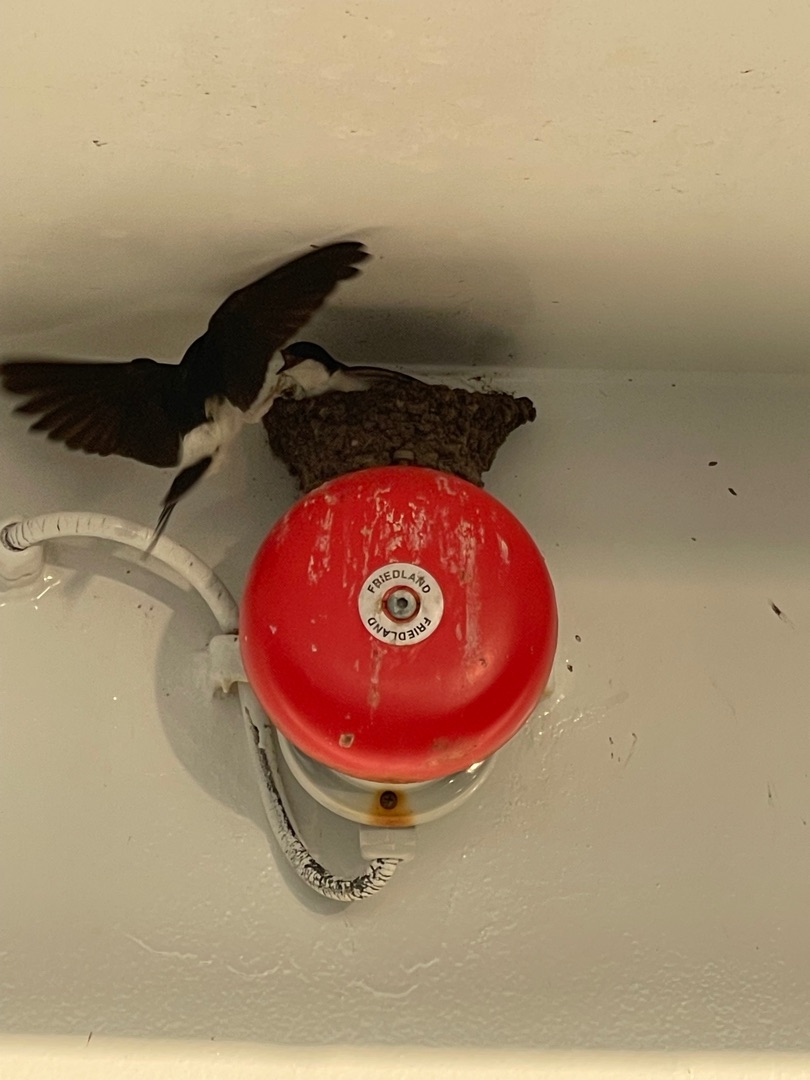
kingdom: Animalia
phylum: Chordata
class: Aves
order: Passeriformes
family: Hirundinidae
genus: Delichon
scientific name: Delichon urbicum
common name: Bysvale
